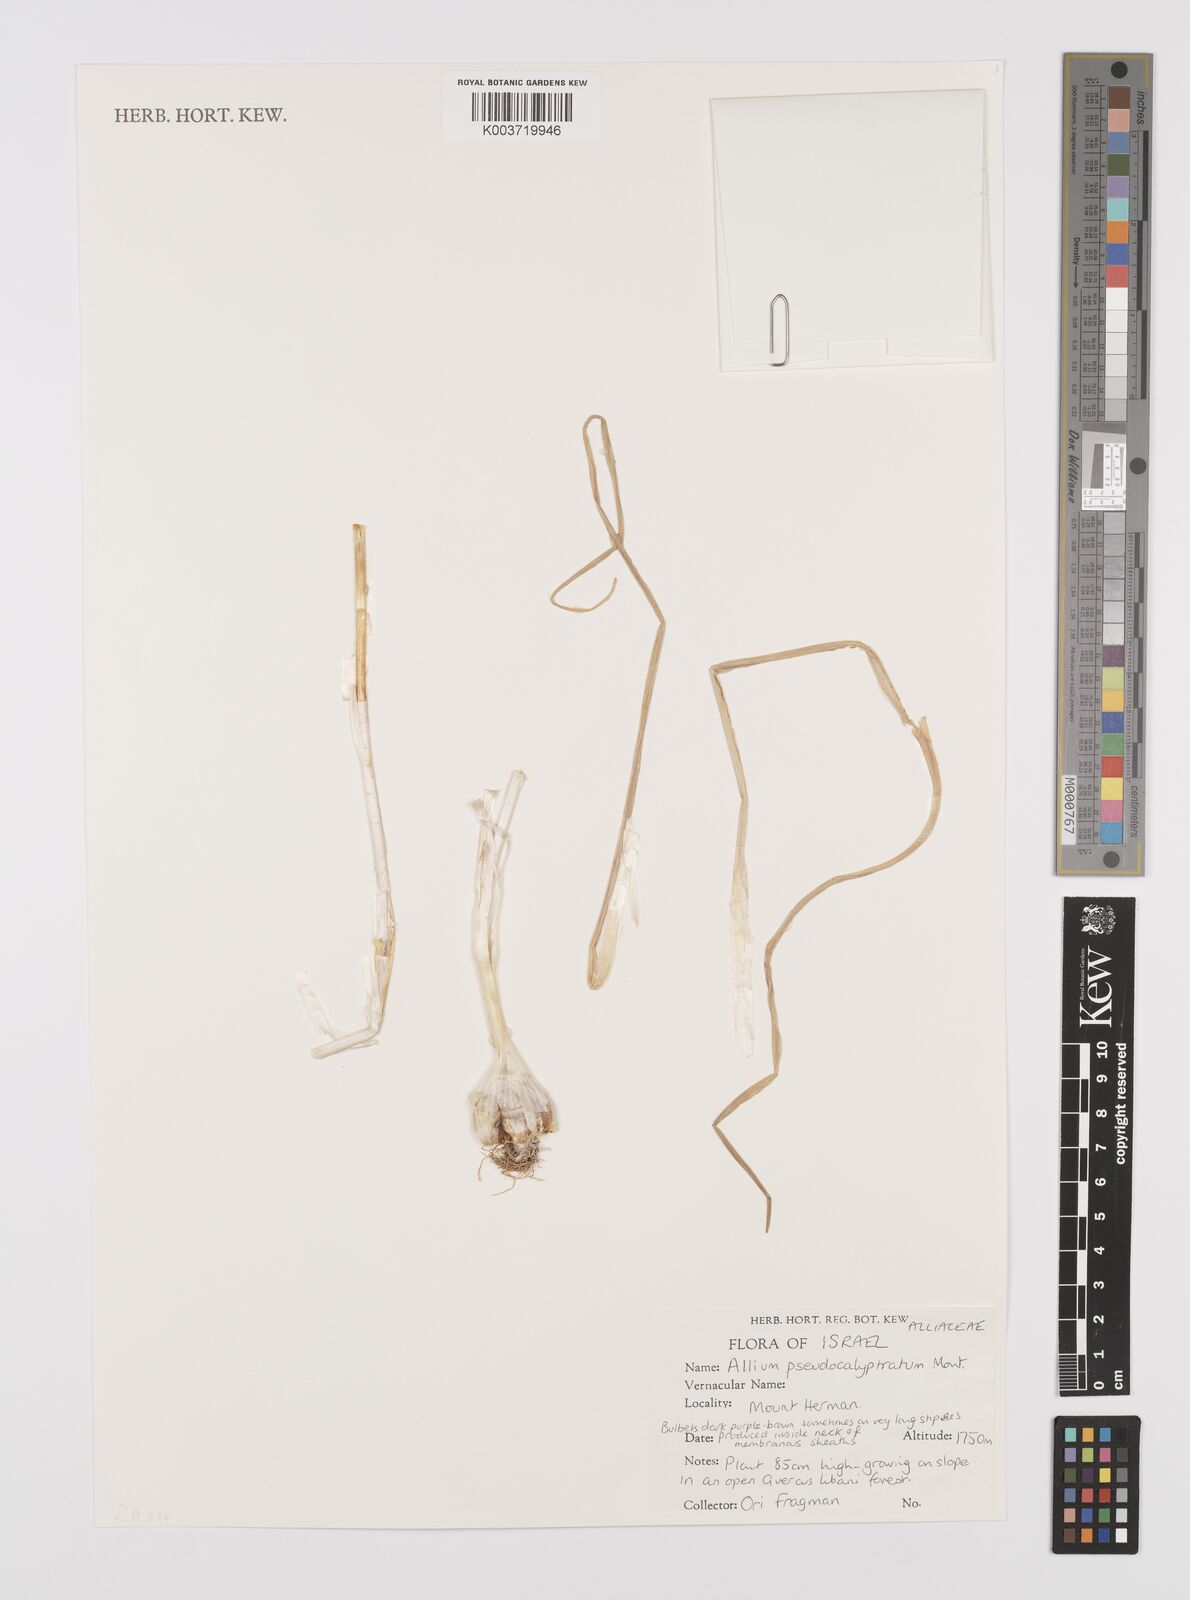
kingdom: Plantae
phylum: Tracheophyta
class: Liliopsida
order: Asparagales
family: Amaryllidaceae
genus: Allium
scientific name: Allium pseudocalyptratum
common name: False hooded garlic
